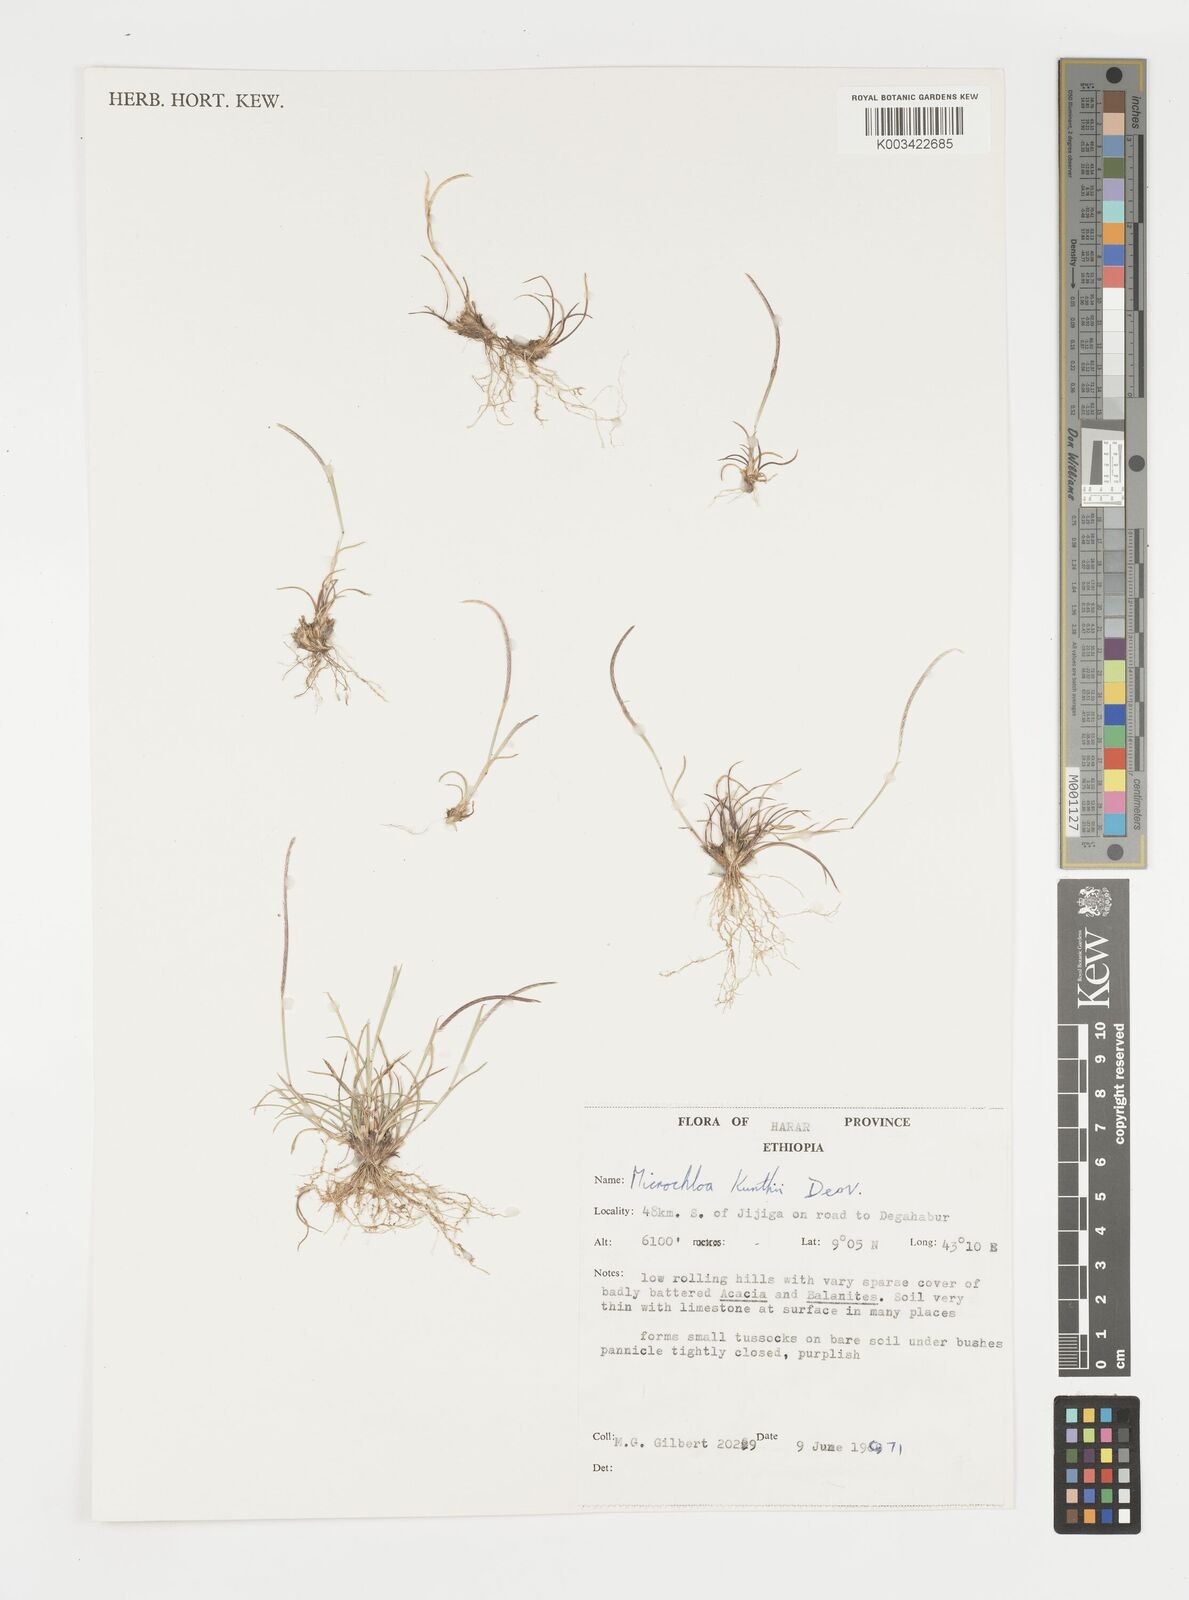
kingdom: Plantae
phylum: Tracheophyta
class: Liliopsida
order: Poales
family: Poaceae
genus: Microchloa
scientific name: Microchloa kunthii
